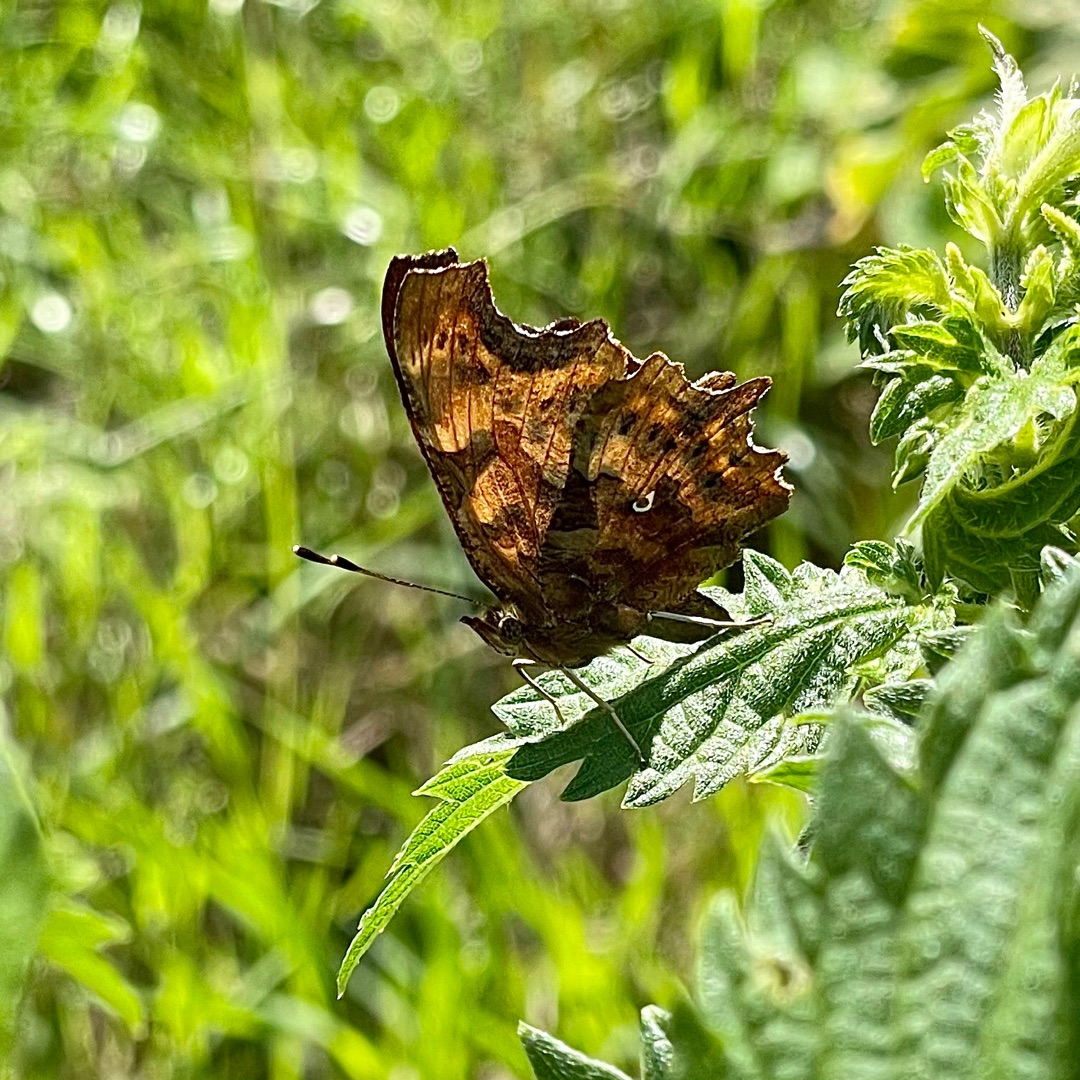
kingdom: Animalia
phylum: Arthropoda
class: Insecta
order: Lepidoptera
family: Nymphalidae
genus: Polygonia
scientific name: Polygonia c-album
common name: Det hvide C
